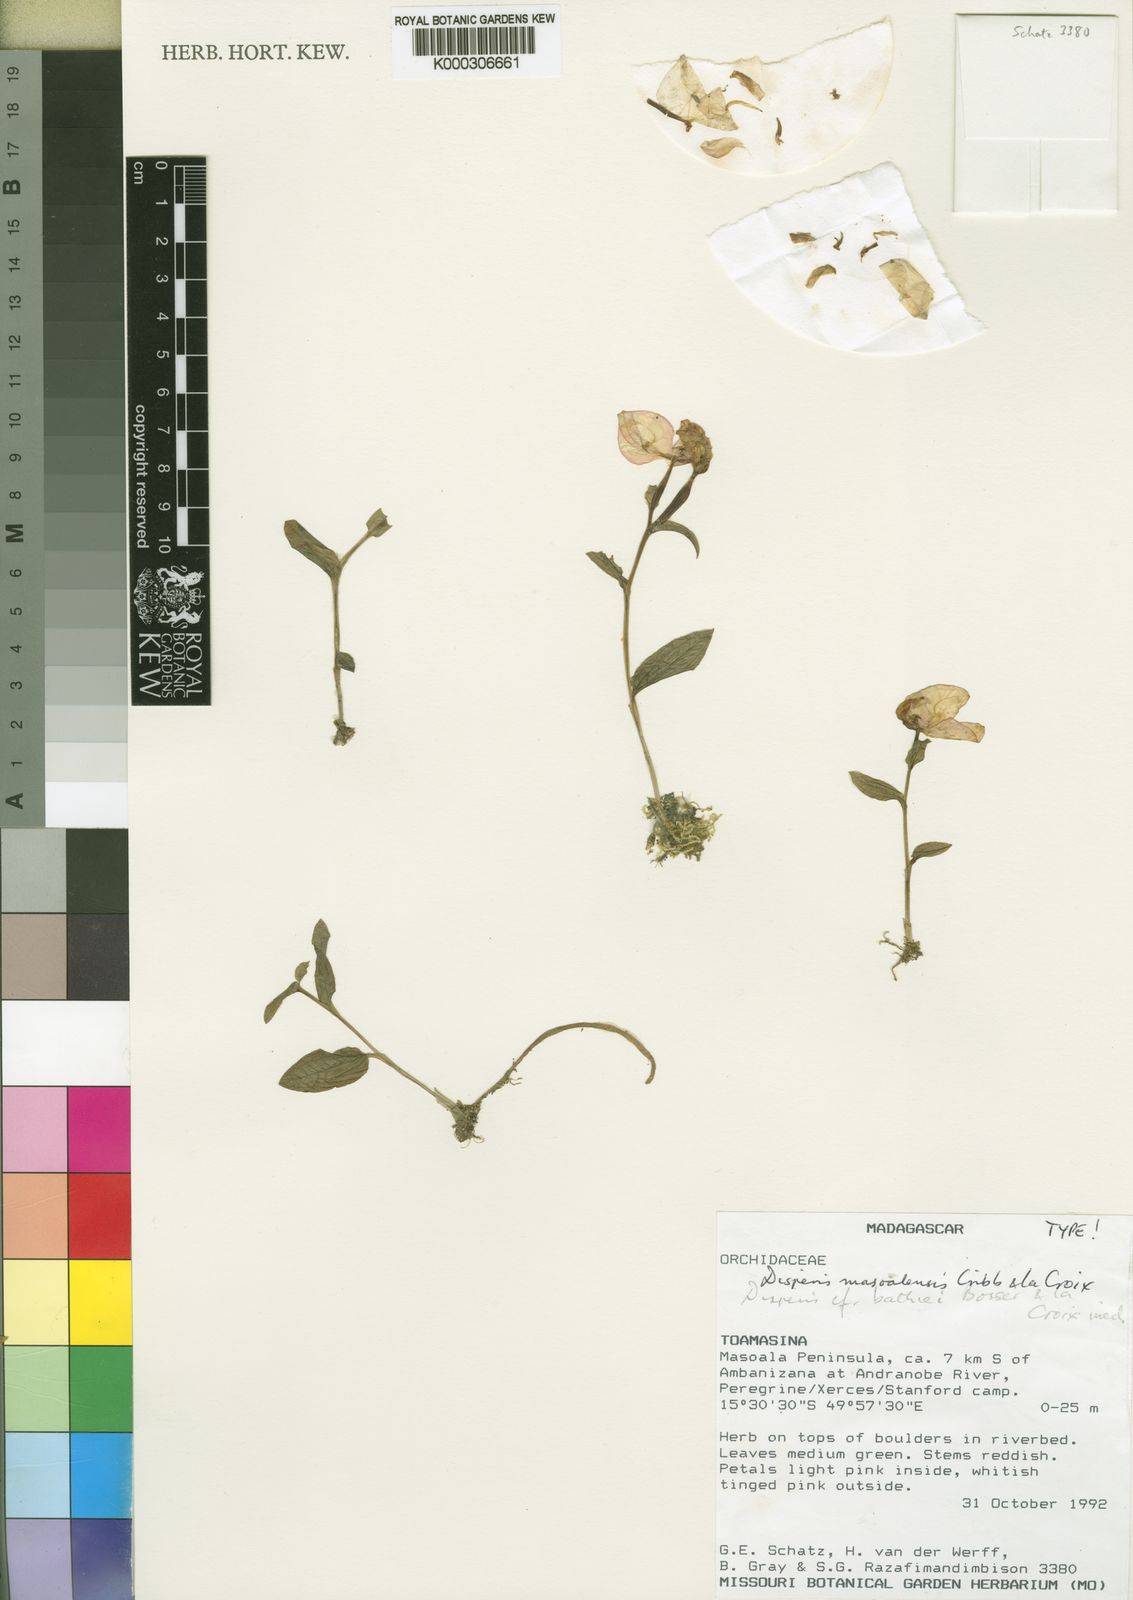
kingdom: Plantae
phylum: Tracheophyta
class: Liliopsida
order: Asparagales
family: Orchidaceae
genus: Disperis
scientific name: Disperis masoalensis
